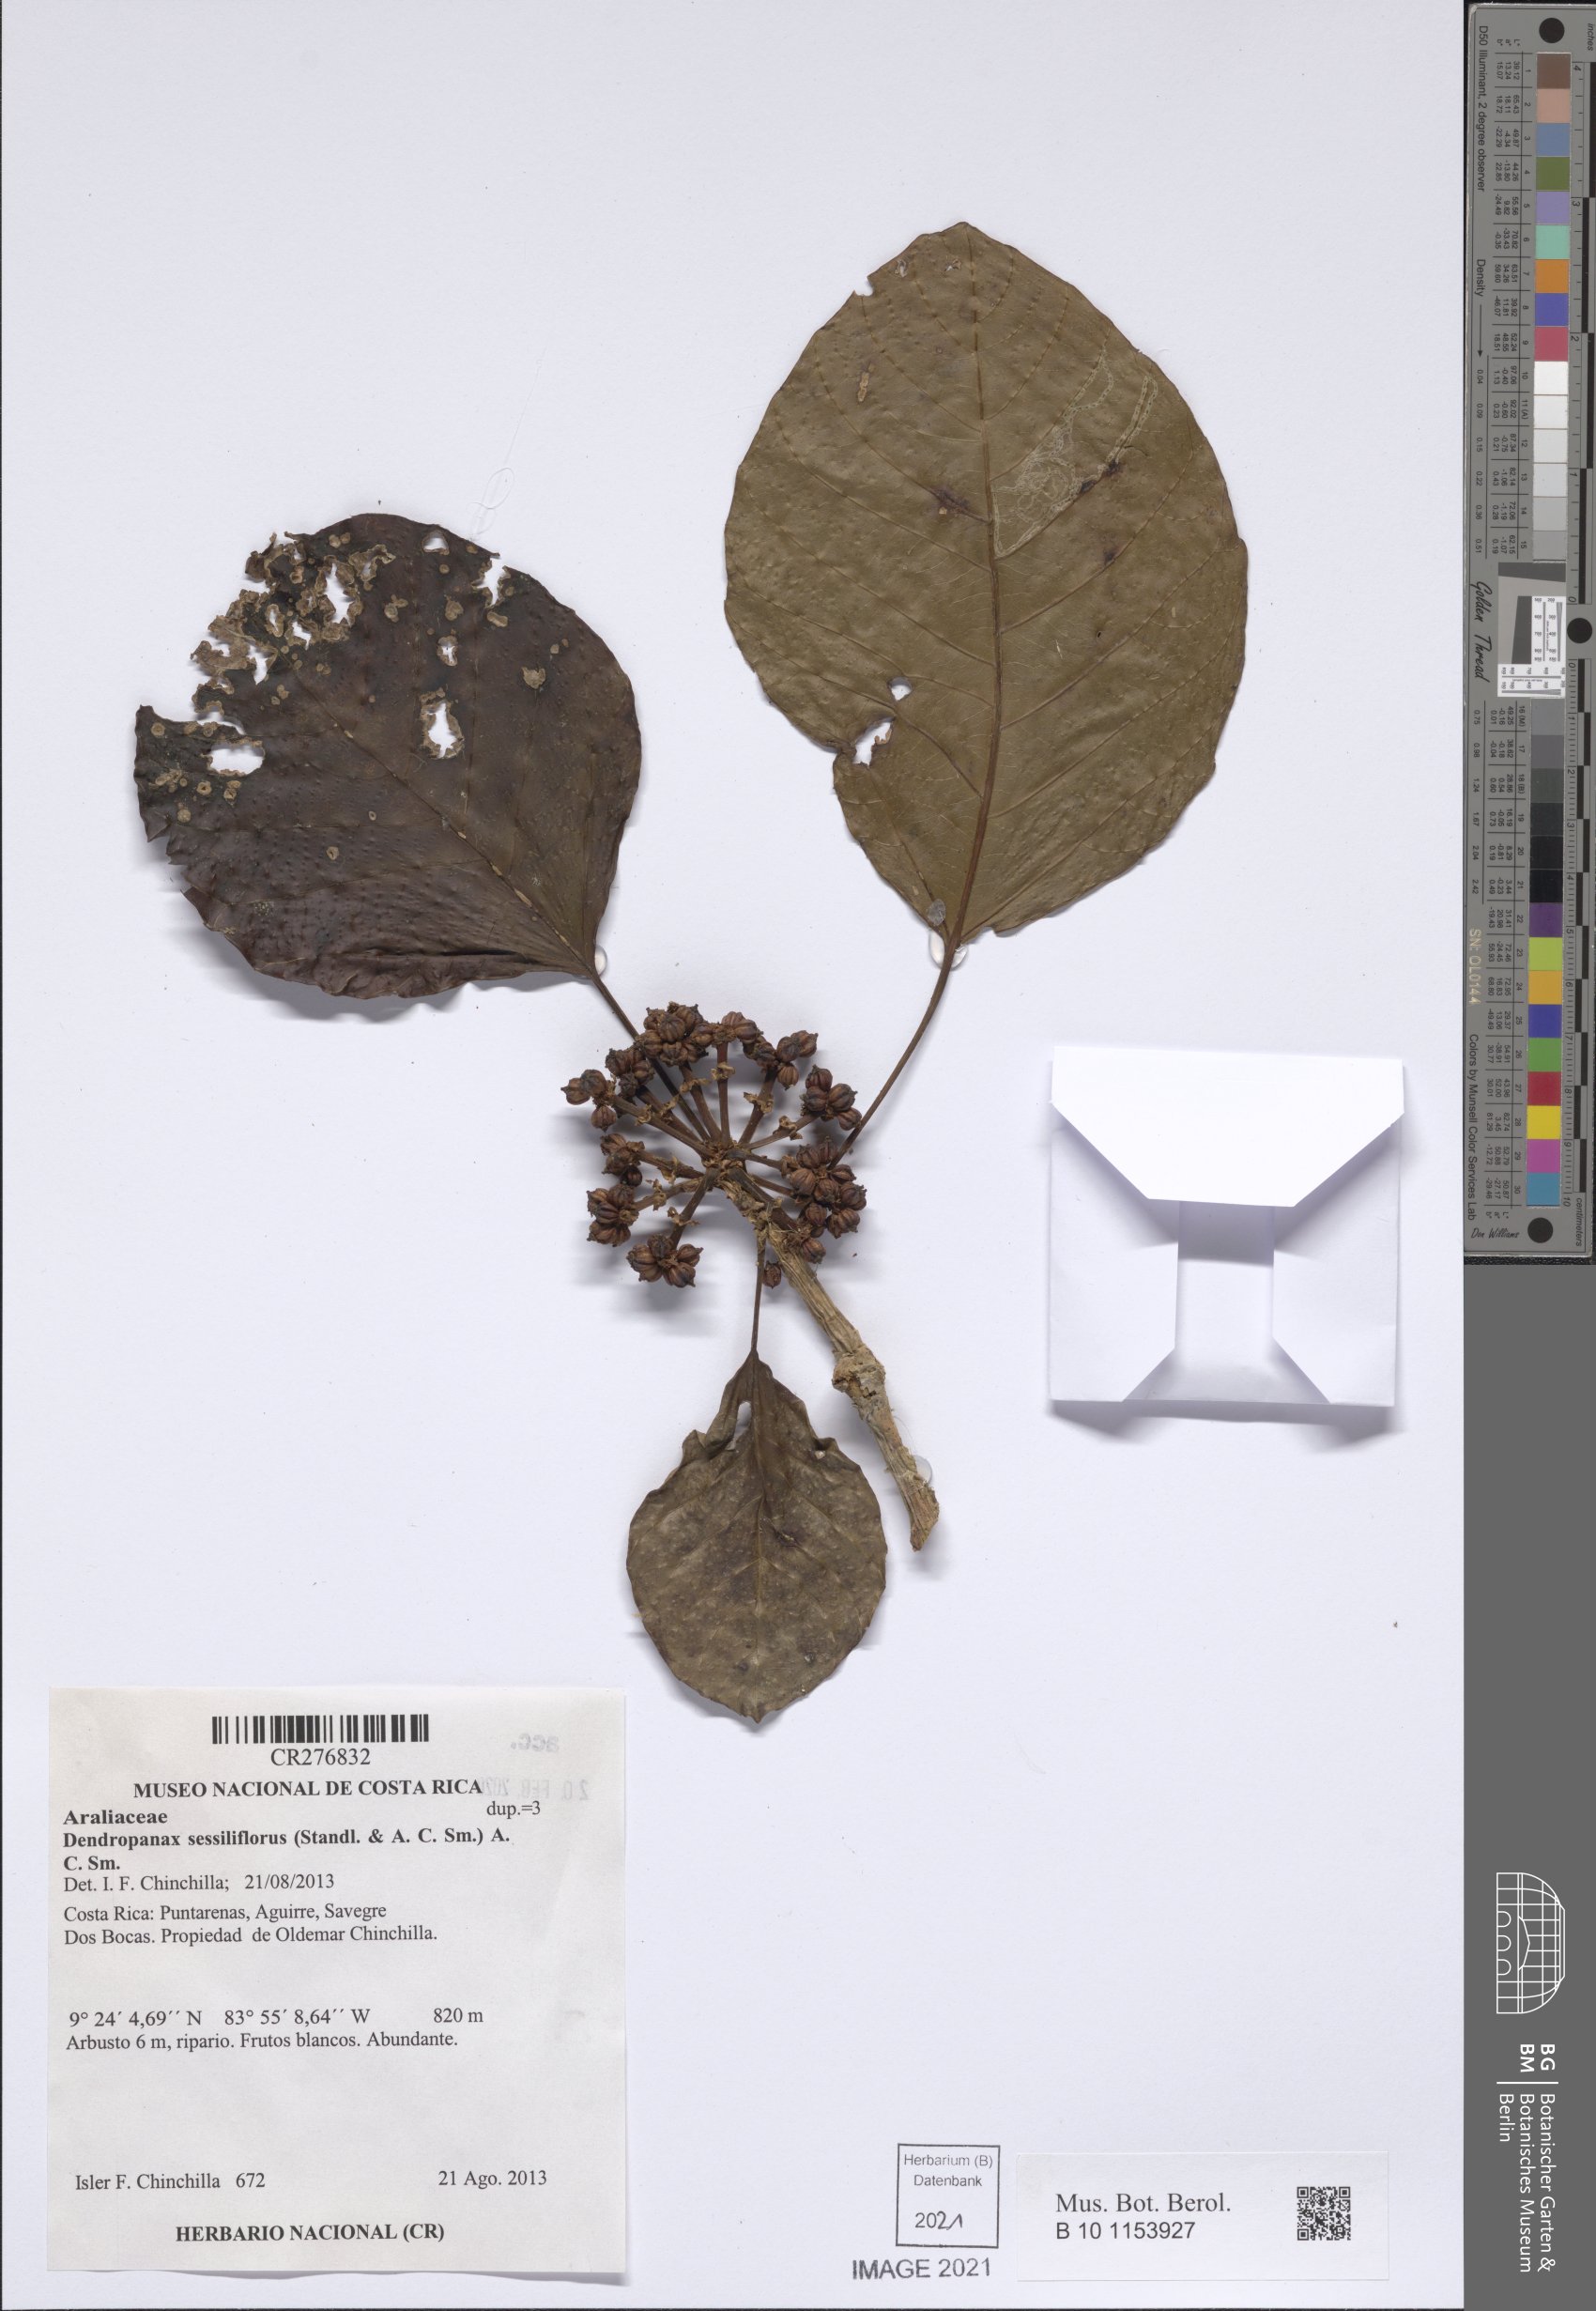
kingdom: Plantae
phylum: Tracheophyta
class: Magnoliopsida
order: Apiales
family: Araliaceae
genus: Dendropanax
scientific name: Dendropanax sessiliflorus
